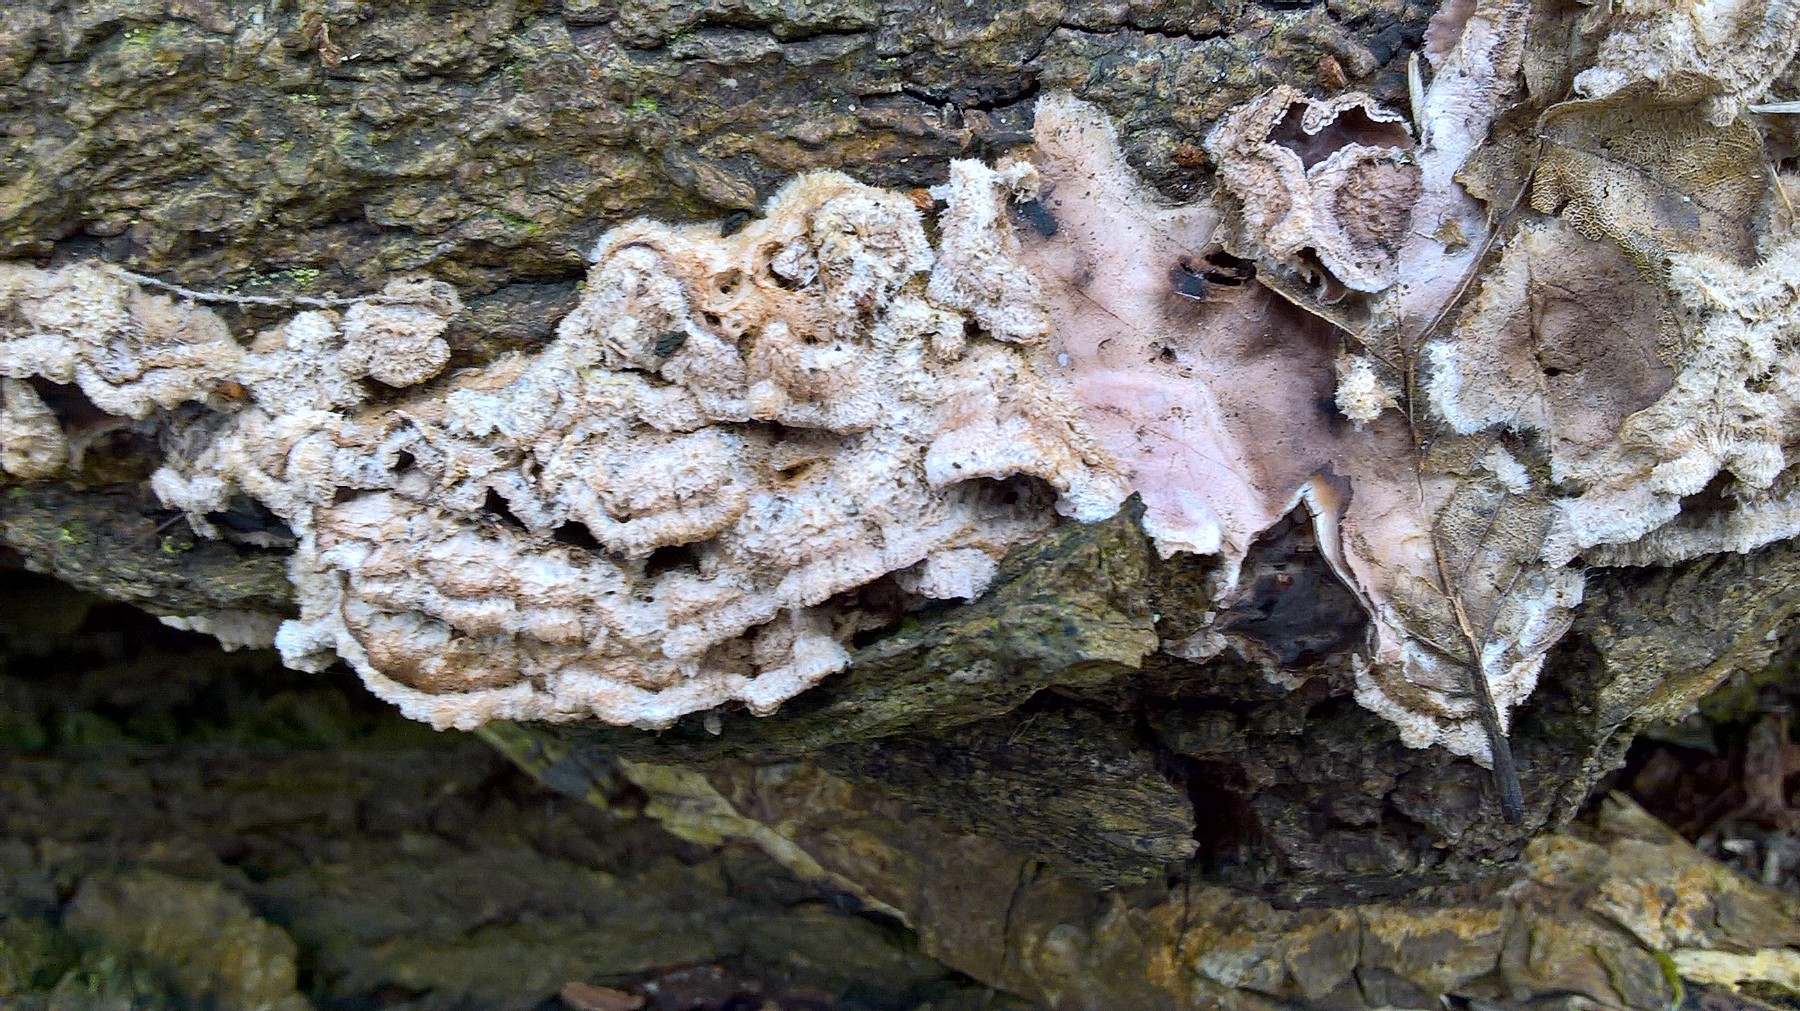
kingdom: Fungi
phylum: Basidiomycota
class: Agaricomycetes
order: Agaricales
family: Cyphellaceae
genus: Chondrostereum
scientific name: Chondrostereum purpureum
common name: purpurlædersvamp
